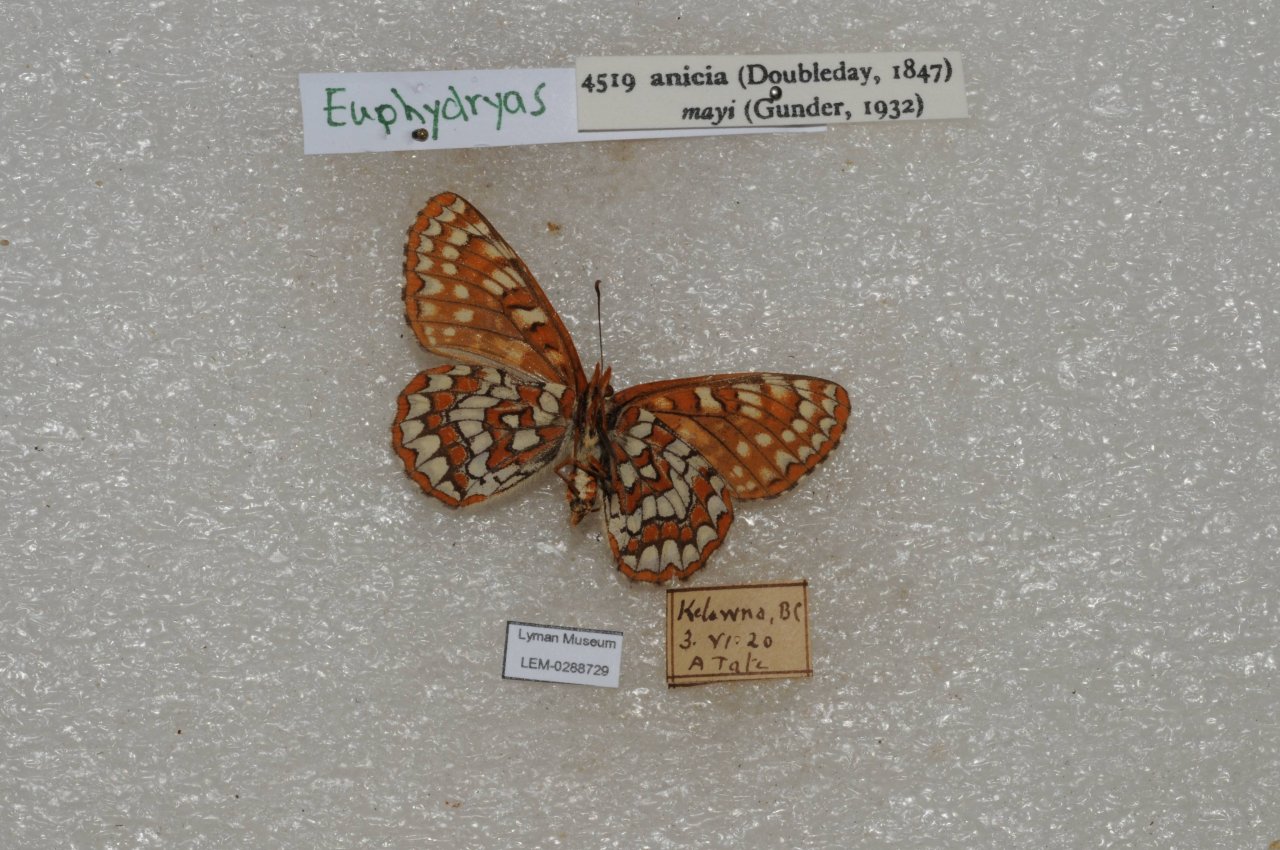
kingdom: Animalia
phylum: Arthropoda
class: Insecta
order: Lepidoptera
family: Nymphalidae
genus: Occidryas
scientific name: Occidryas anicia
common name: Anicia Checkerspot
